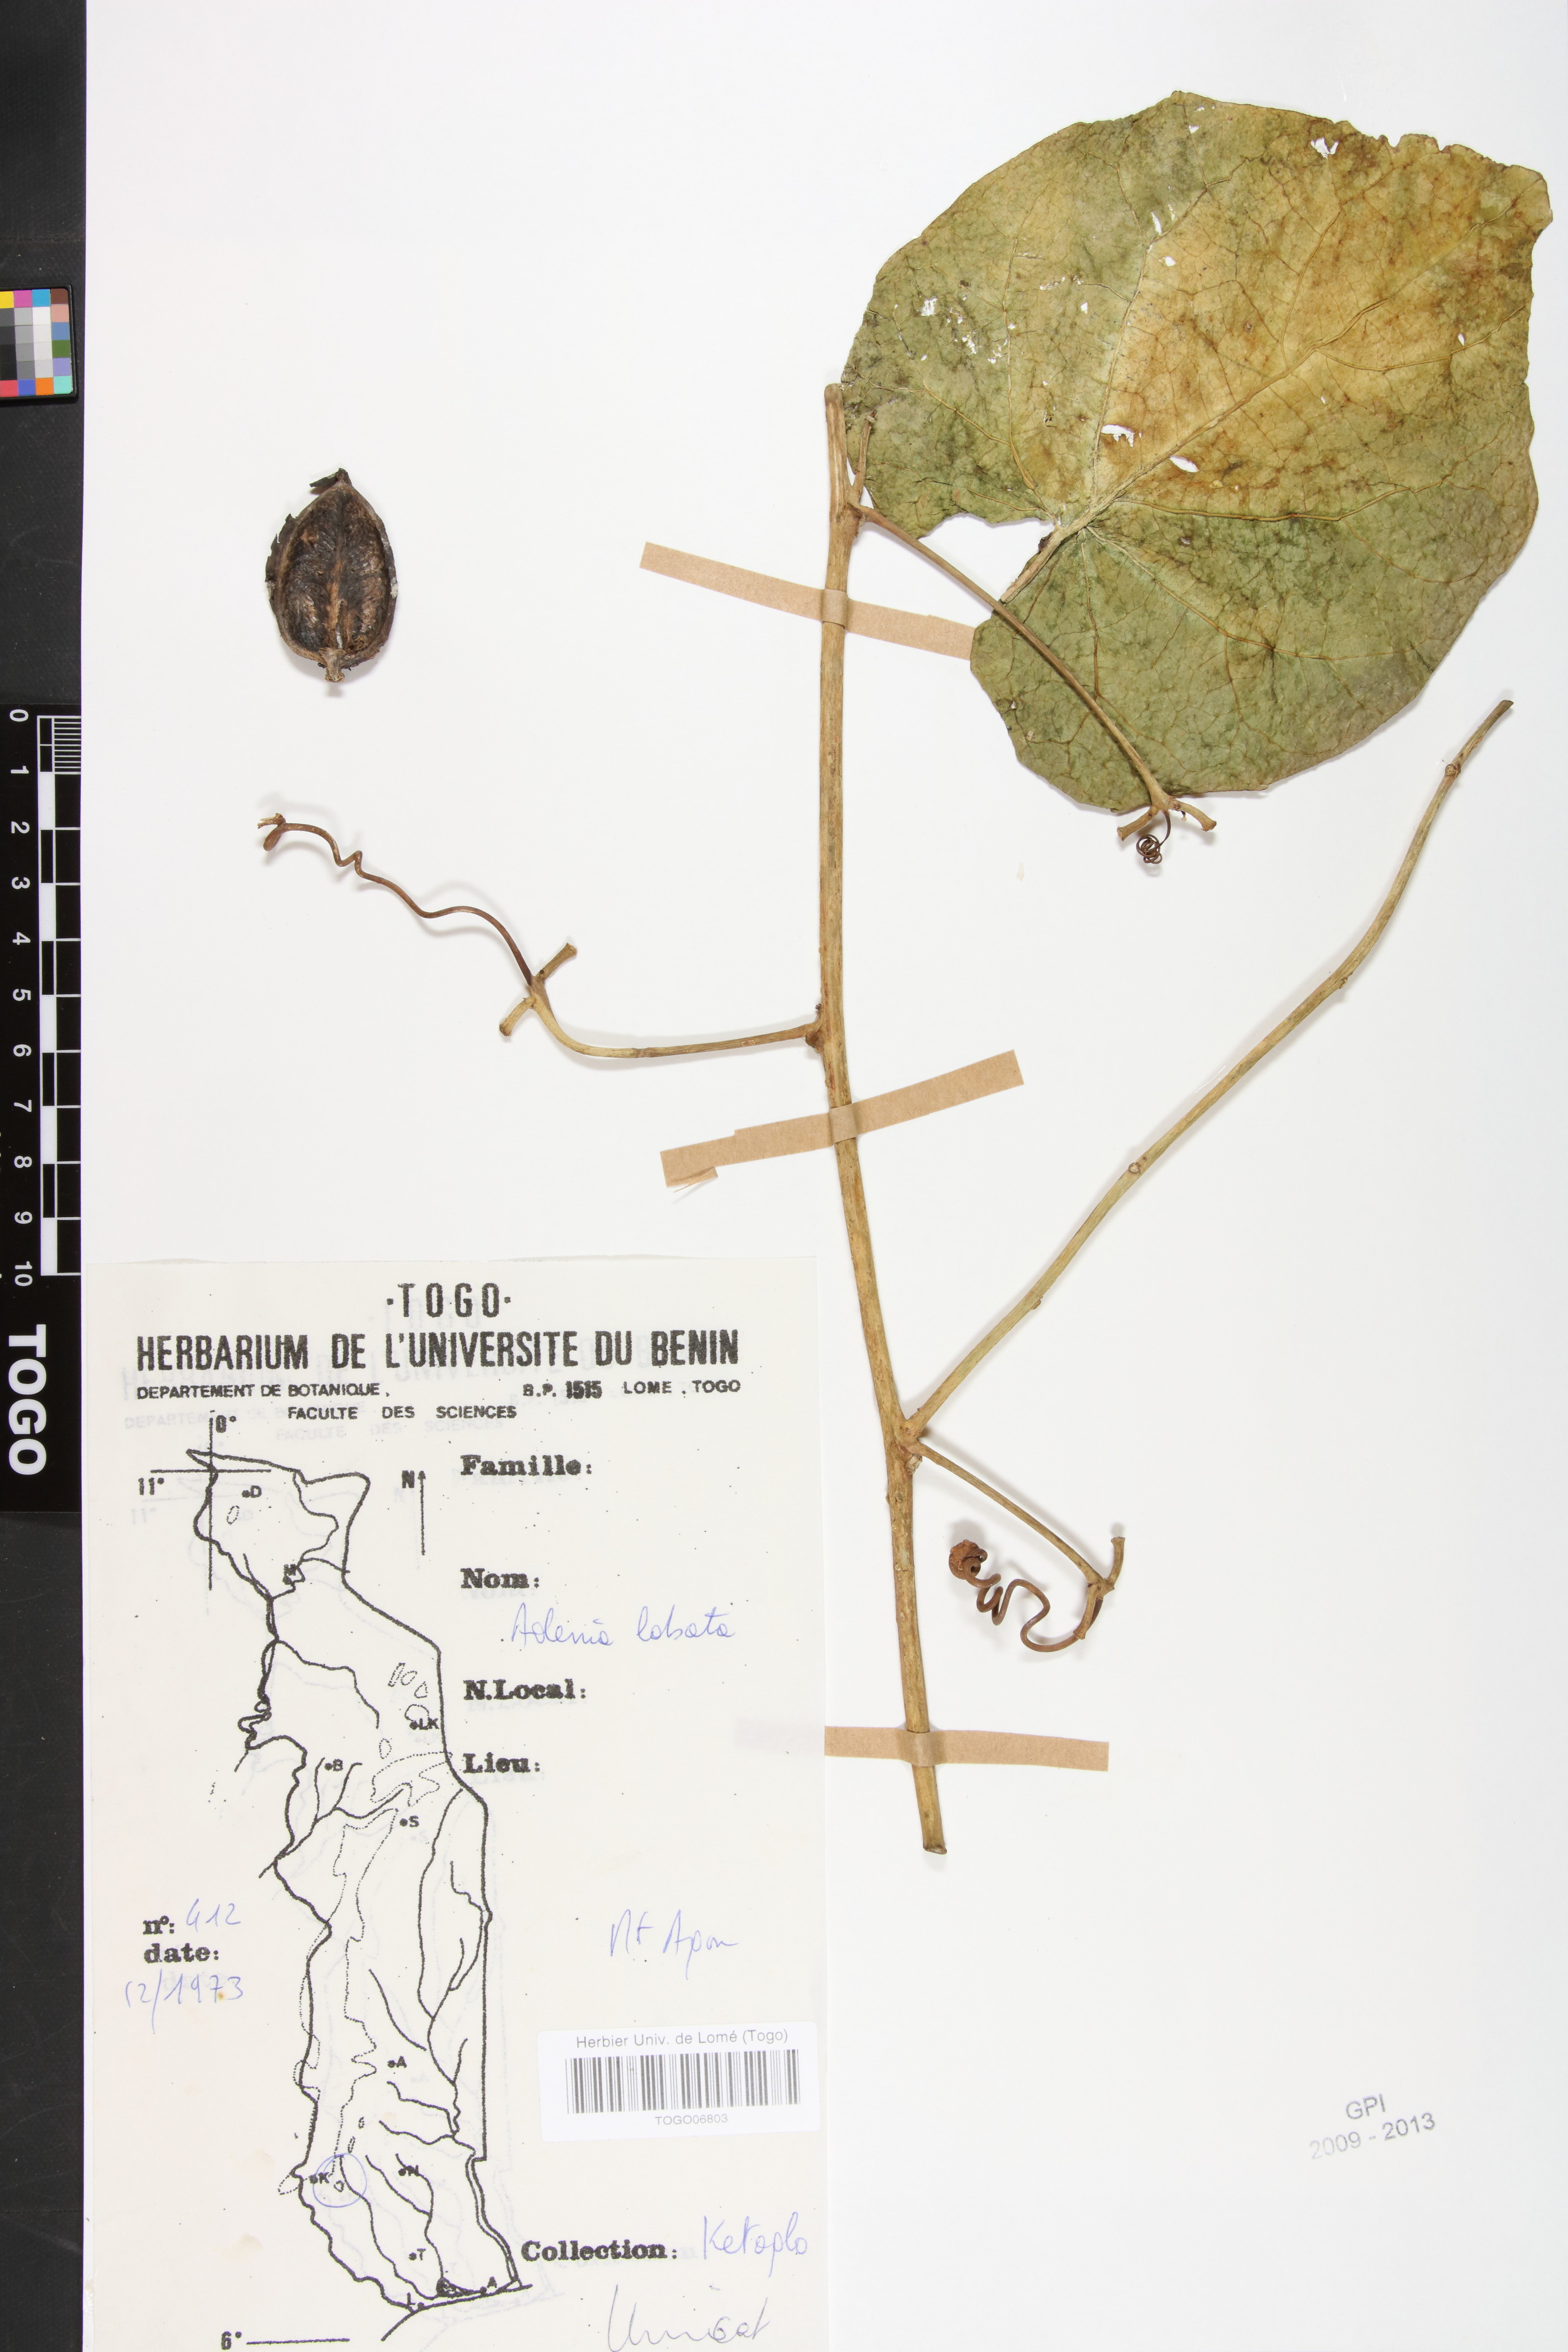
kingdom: Plantae
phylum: Tracheophyta
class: Magnoliopsida
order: Malpighiales
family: Passifloraceae
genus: Adenia
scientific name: Adenia lobata
